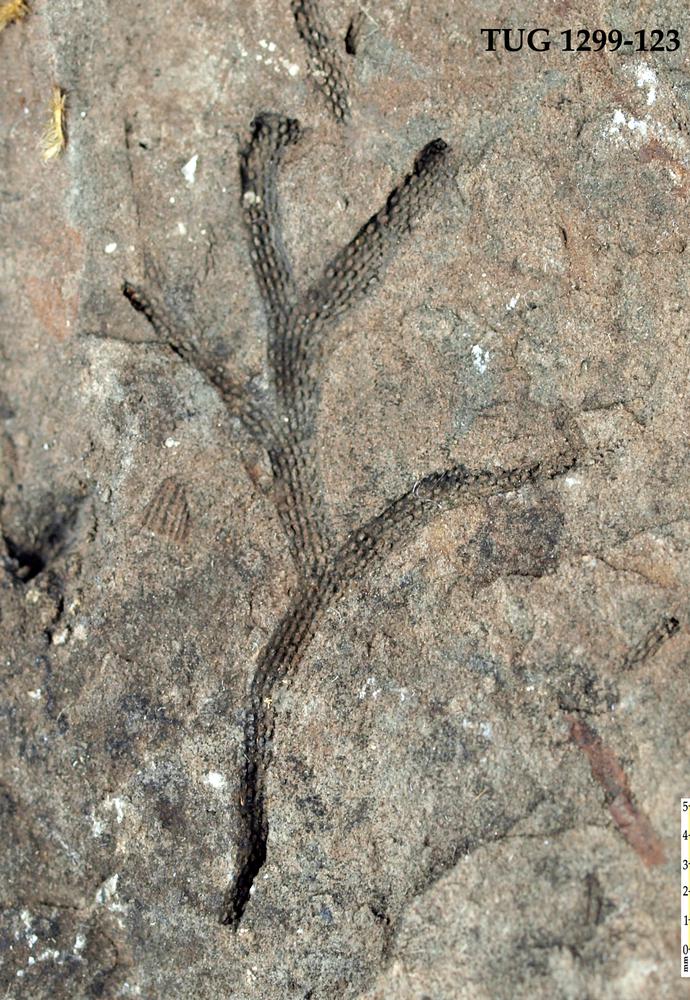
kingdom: Animalia
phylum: Bryozoa
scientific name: Bryozoa
